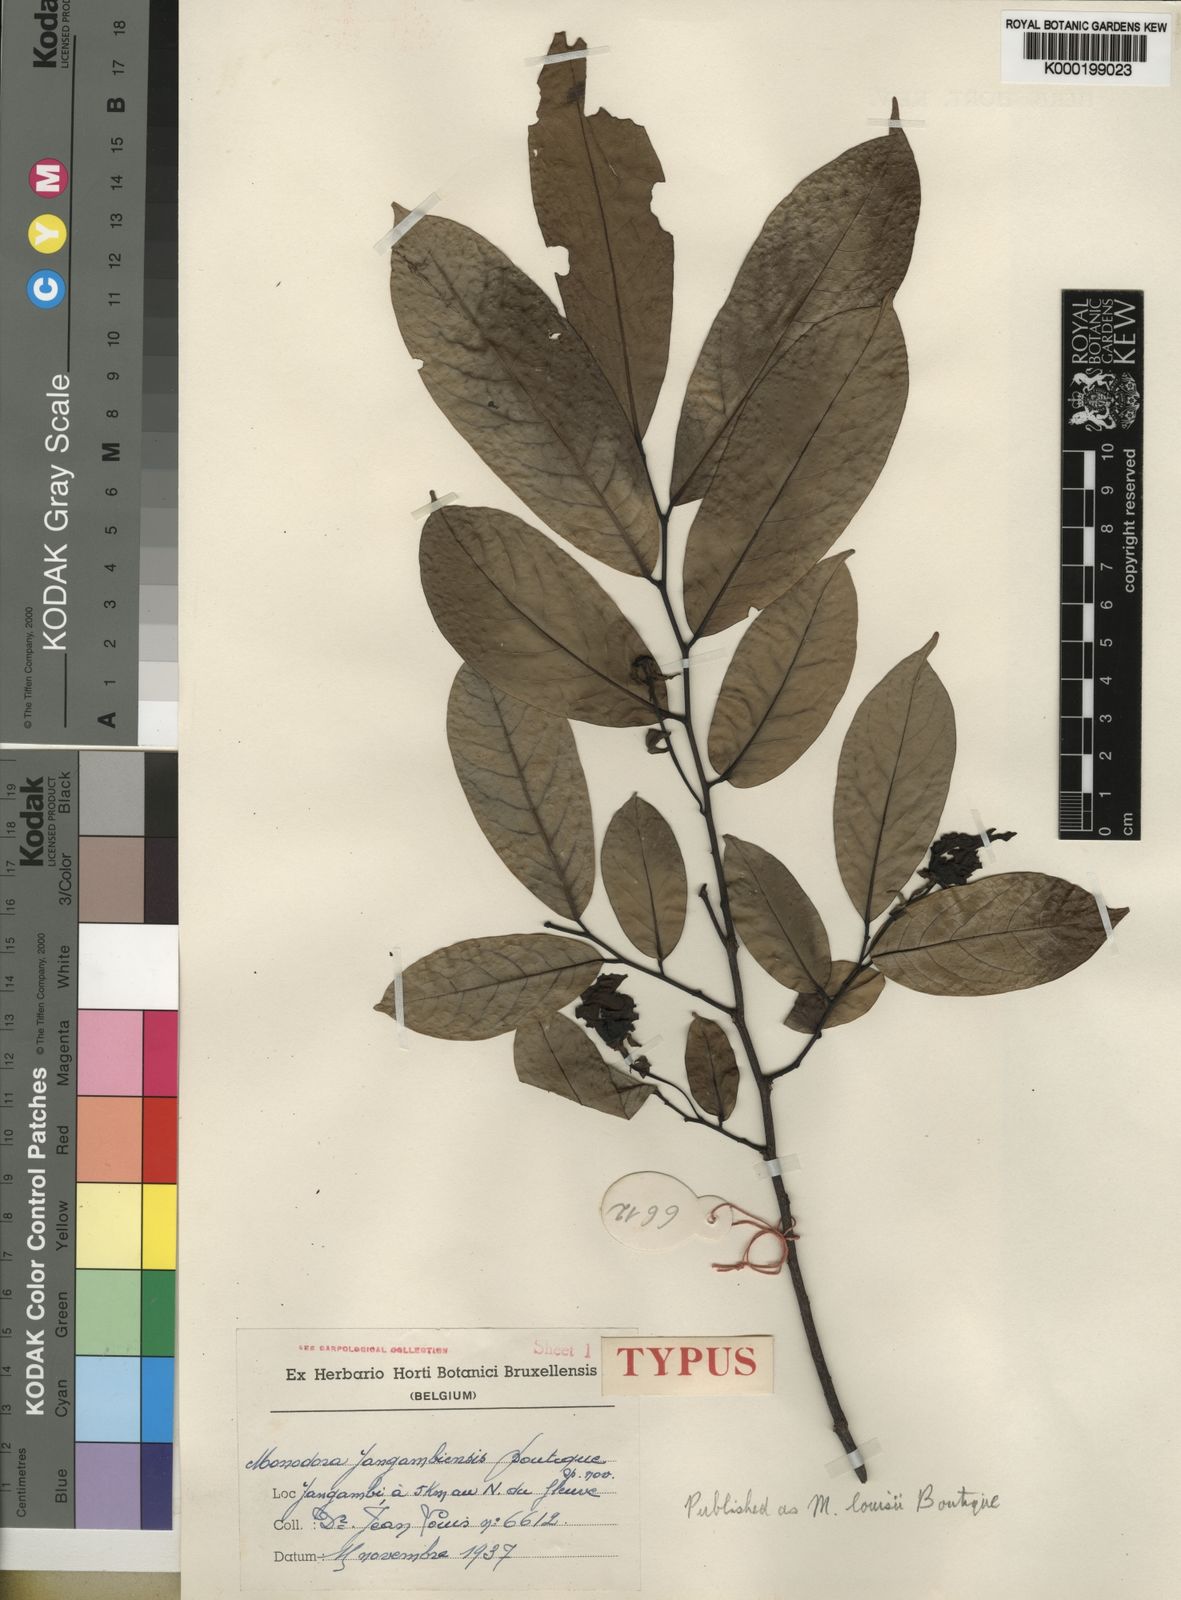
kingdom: Plantae
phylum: Tracheophyta
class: Magnoliopsida
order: Magnoliales
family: Annonaceae
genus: Monodora
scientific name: Monodora angolensis
